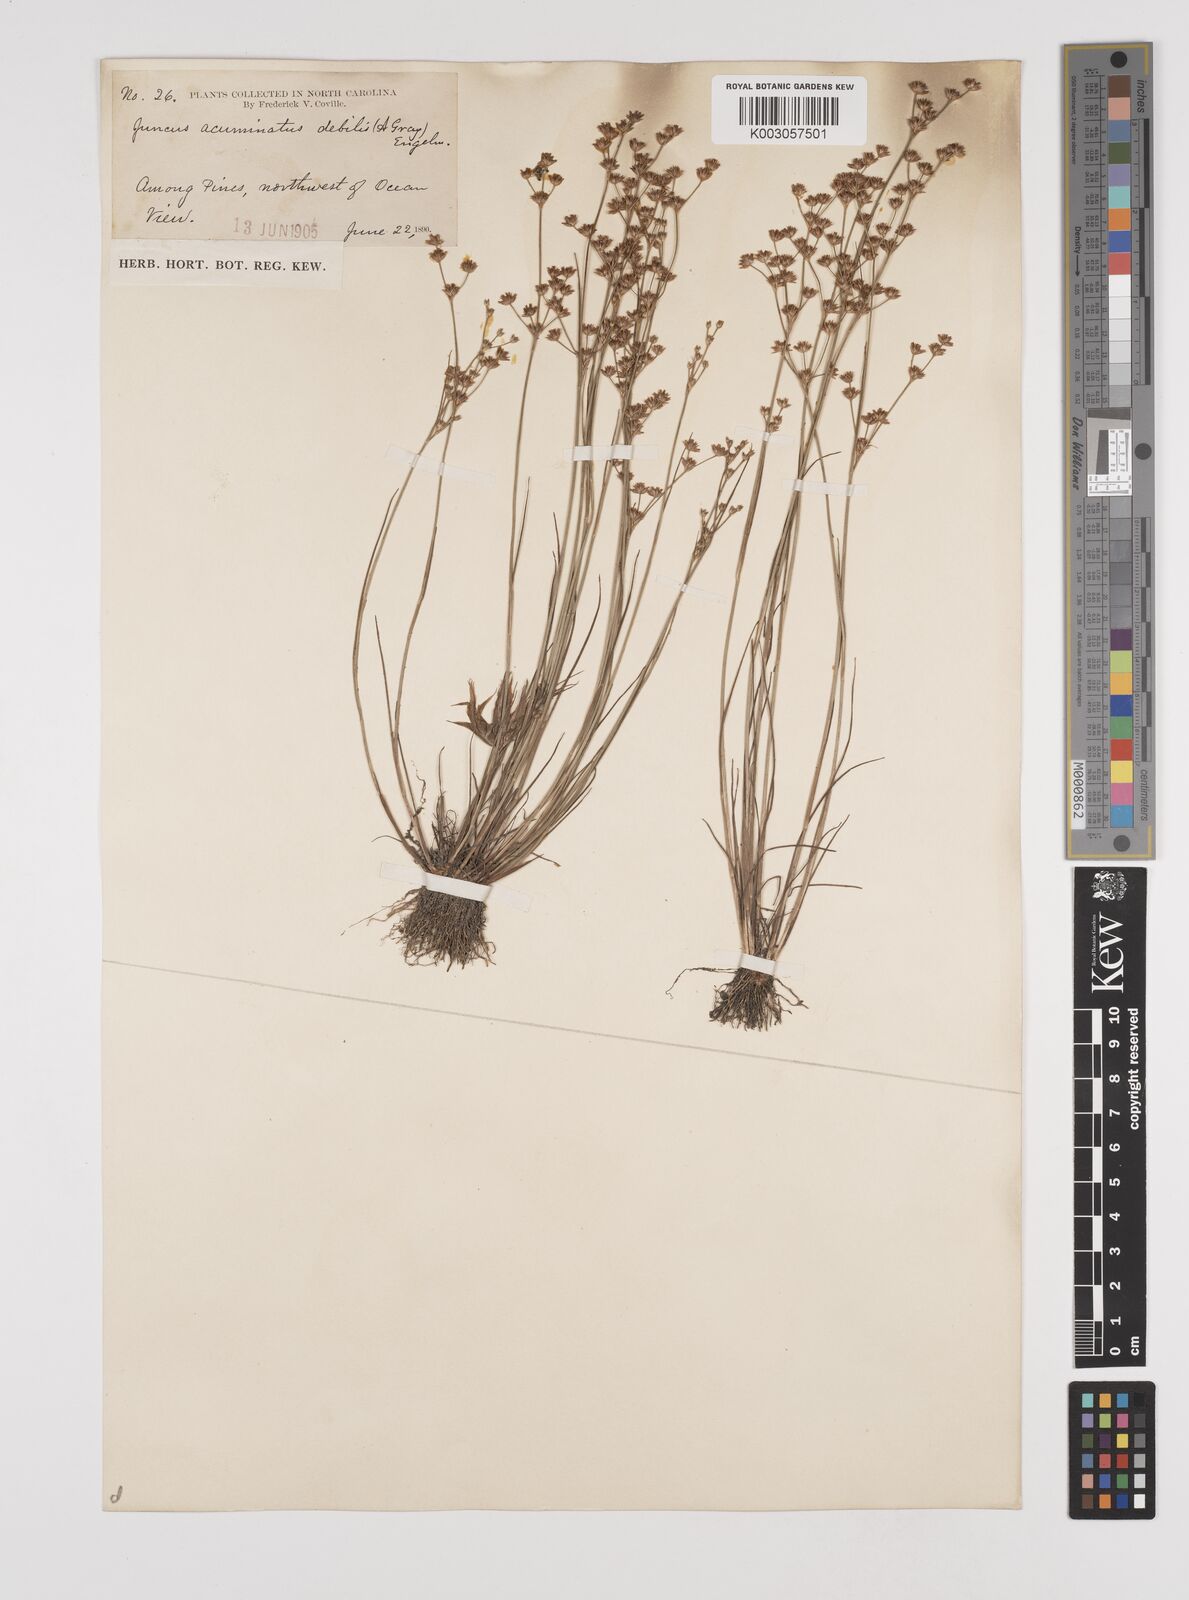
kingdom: Plantae
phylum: Tracheophyta
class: Liliopsida
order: Poales
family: Juncaceae
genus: Juncus
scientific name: Juncus debilis
